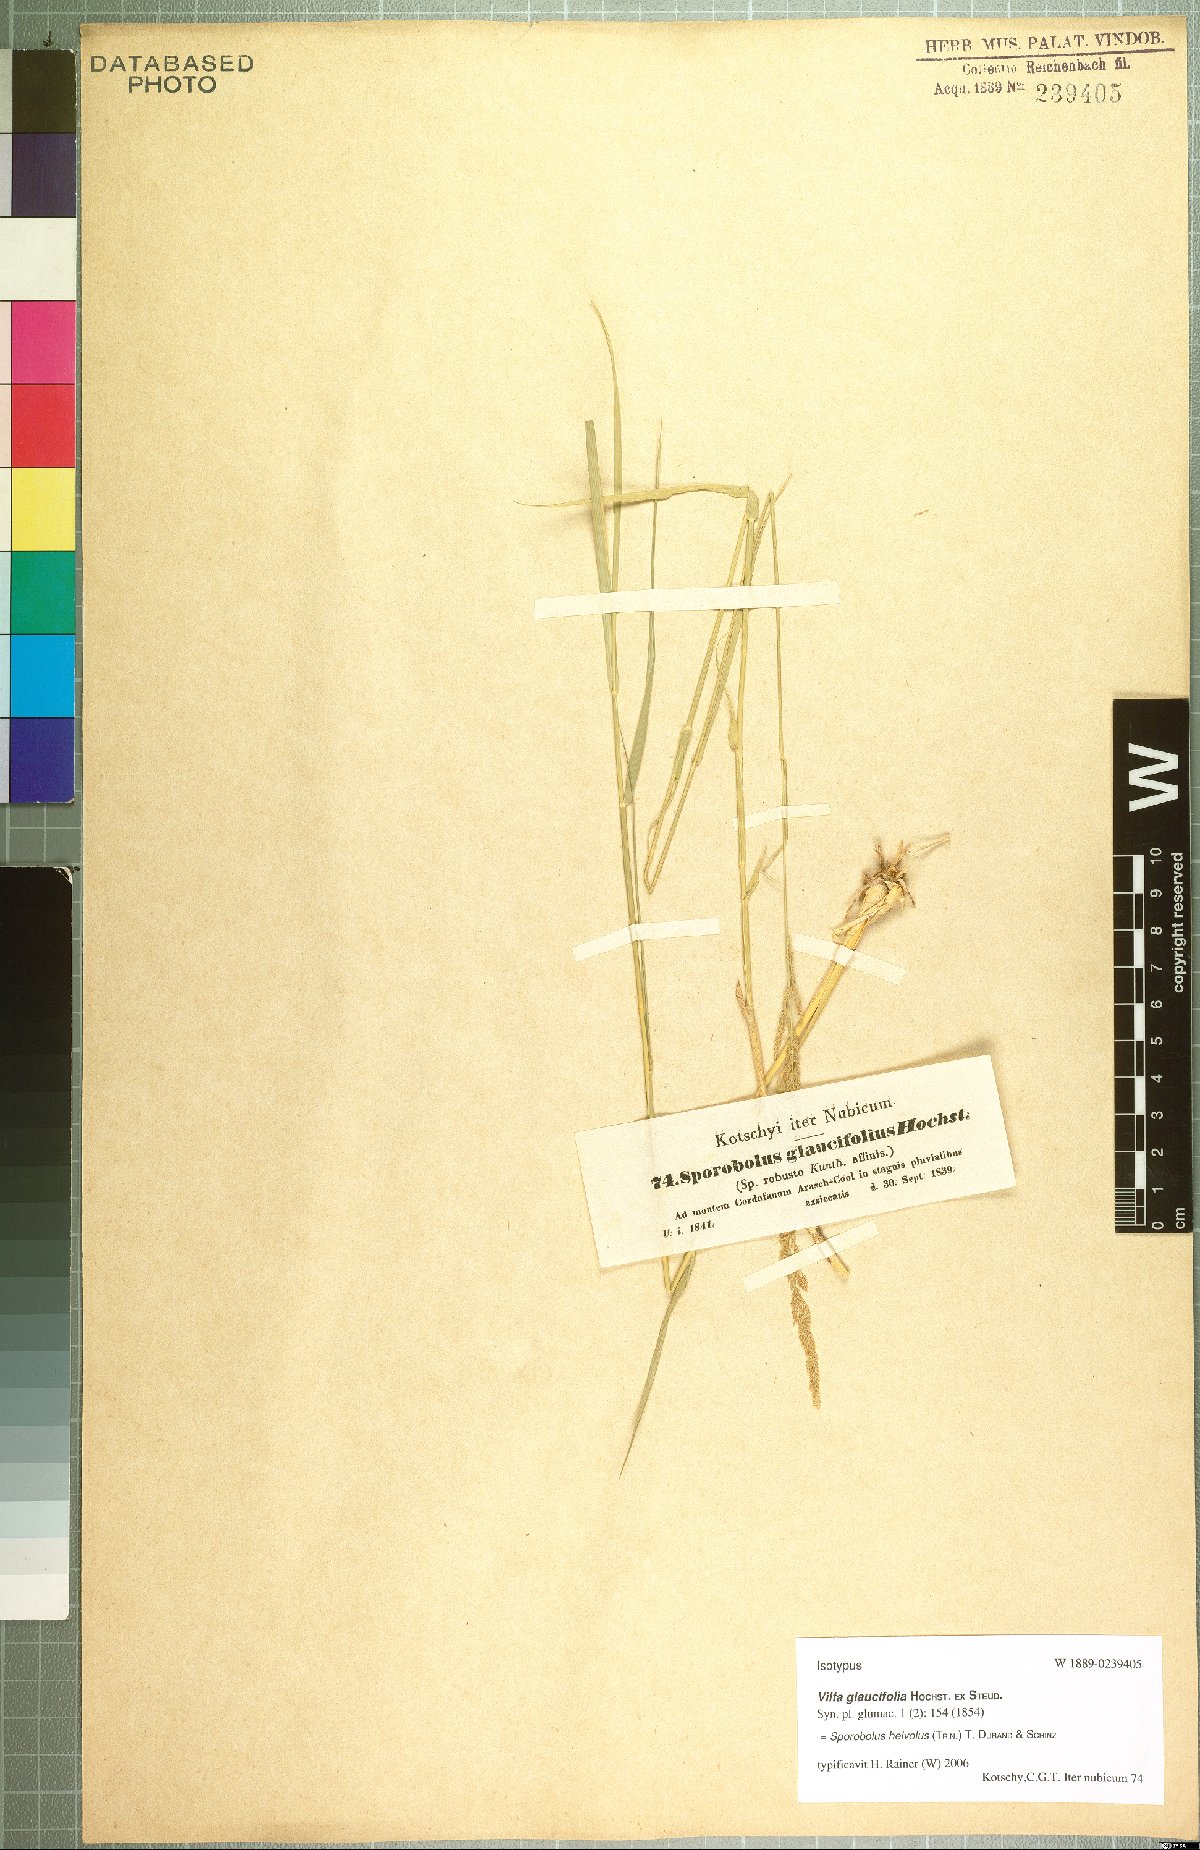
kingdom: Plantae
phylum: Tracheophyta
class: Liliopsida
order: Poales
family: Poaceae
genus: Sporobolus
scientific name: Sporobolus helvolus
